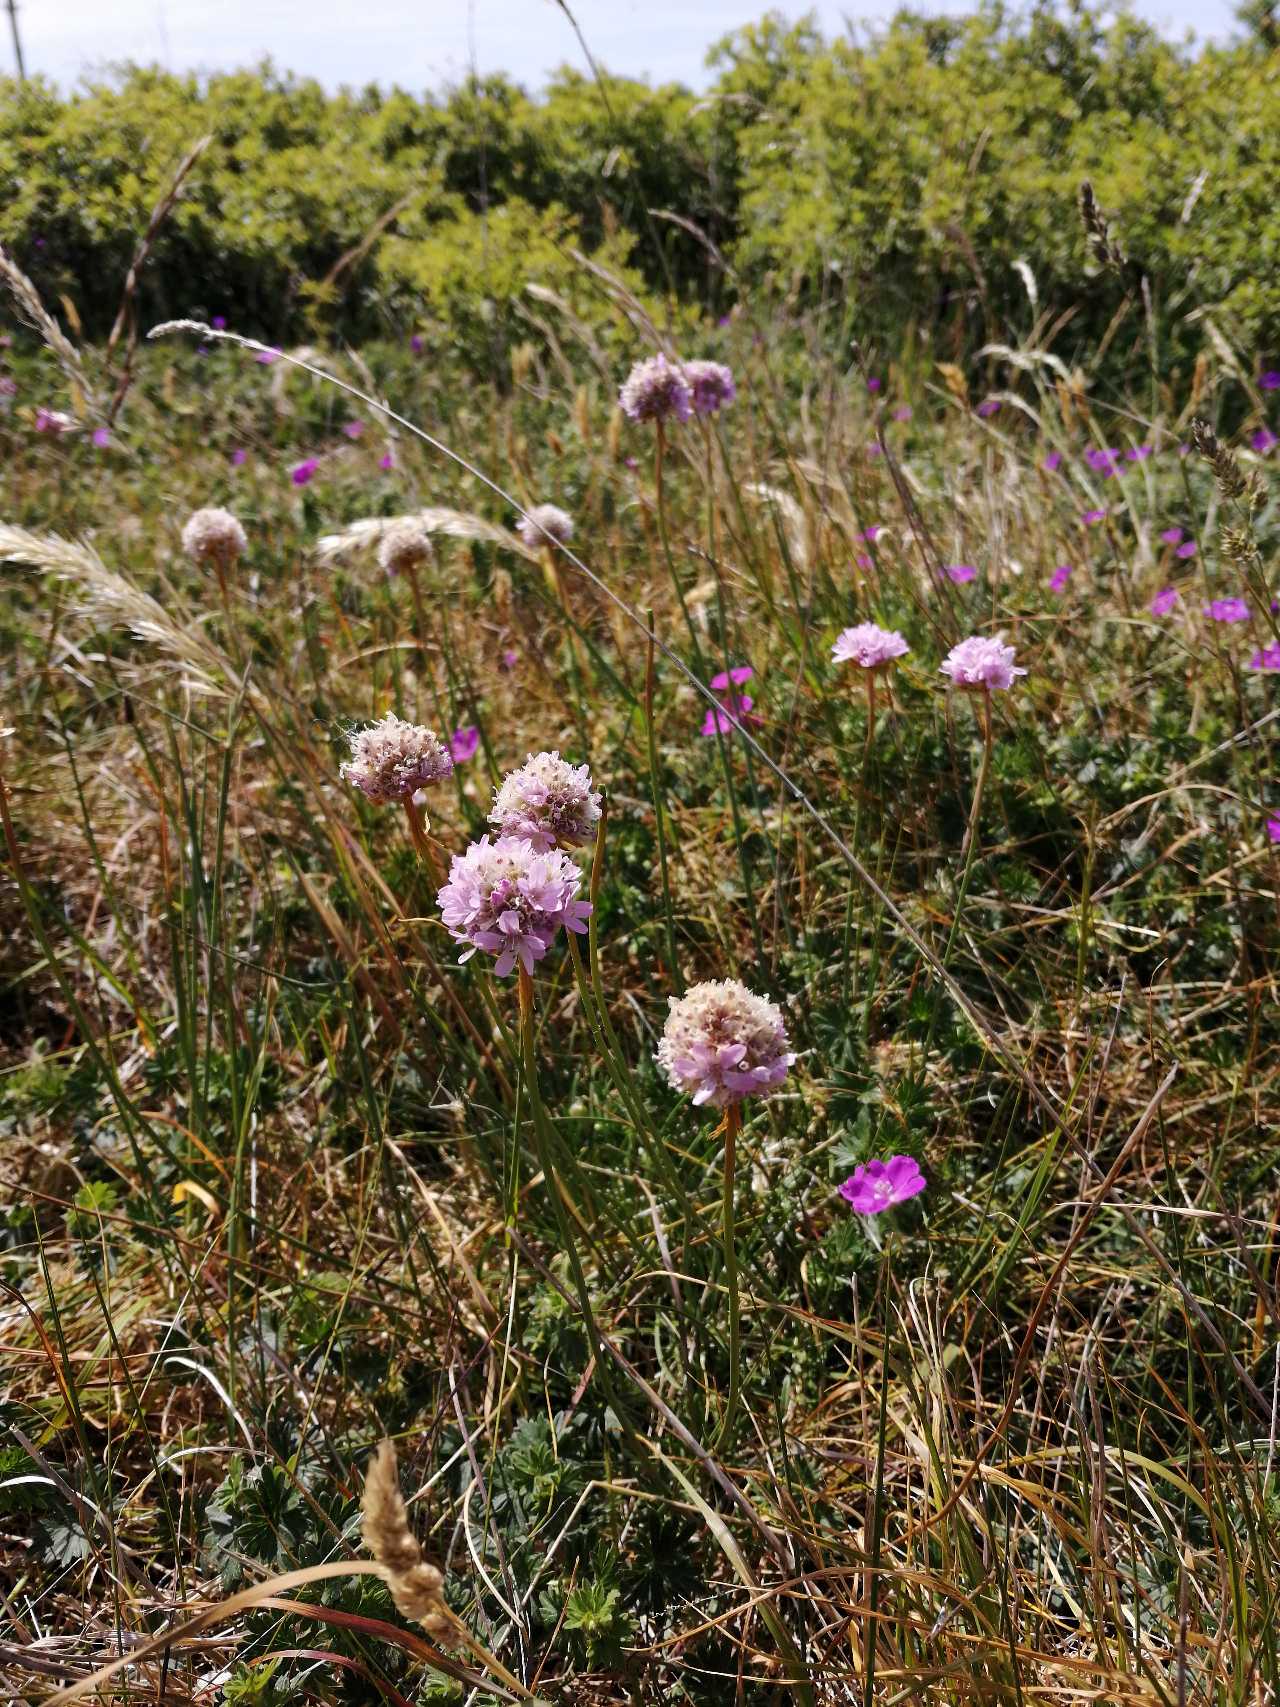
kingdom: Plantae
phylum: Tracheophyta
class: Magnoliopsida
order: Caryophyllales
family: Plumbaginaceae
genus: Armeria
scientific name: Armeria maritima
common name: Engelskgræs
